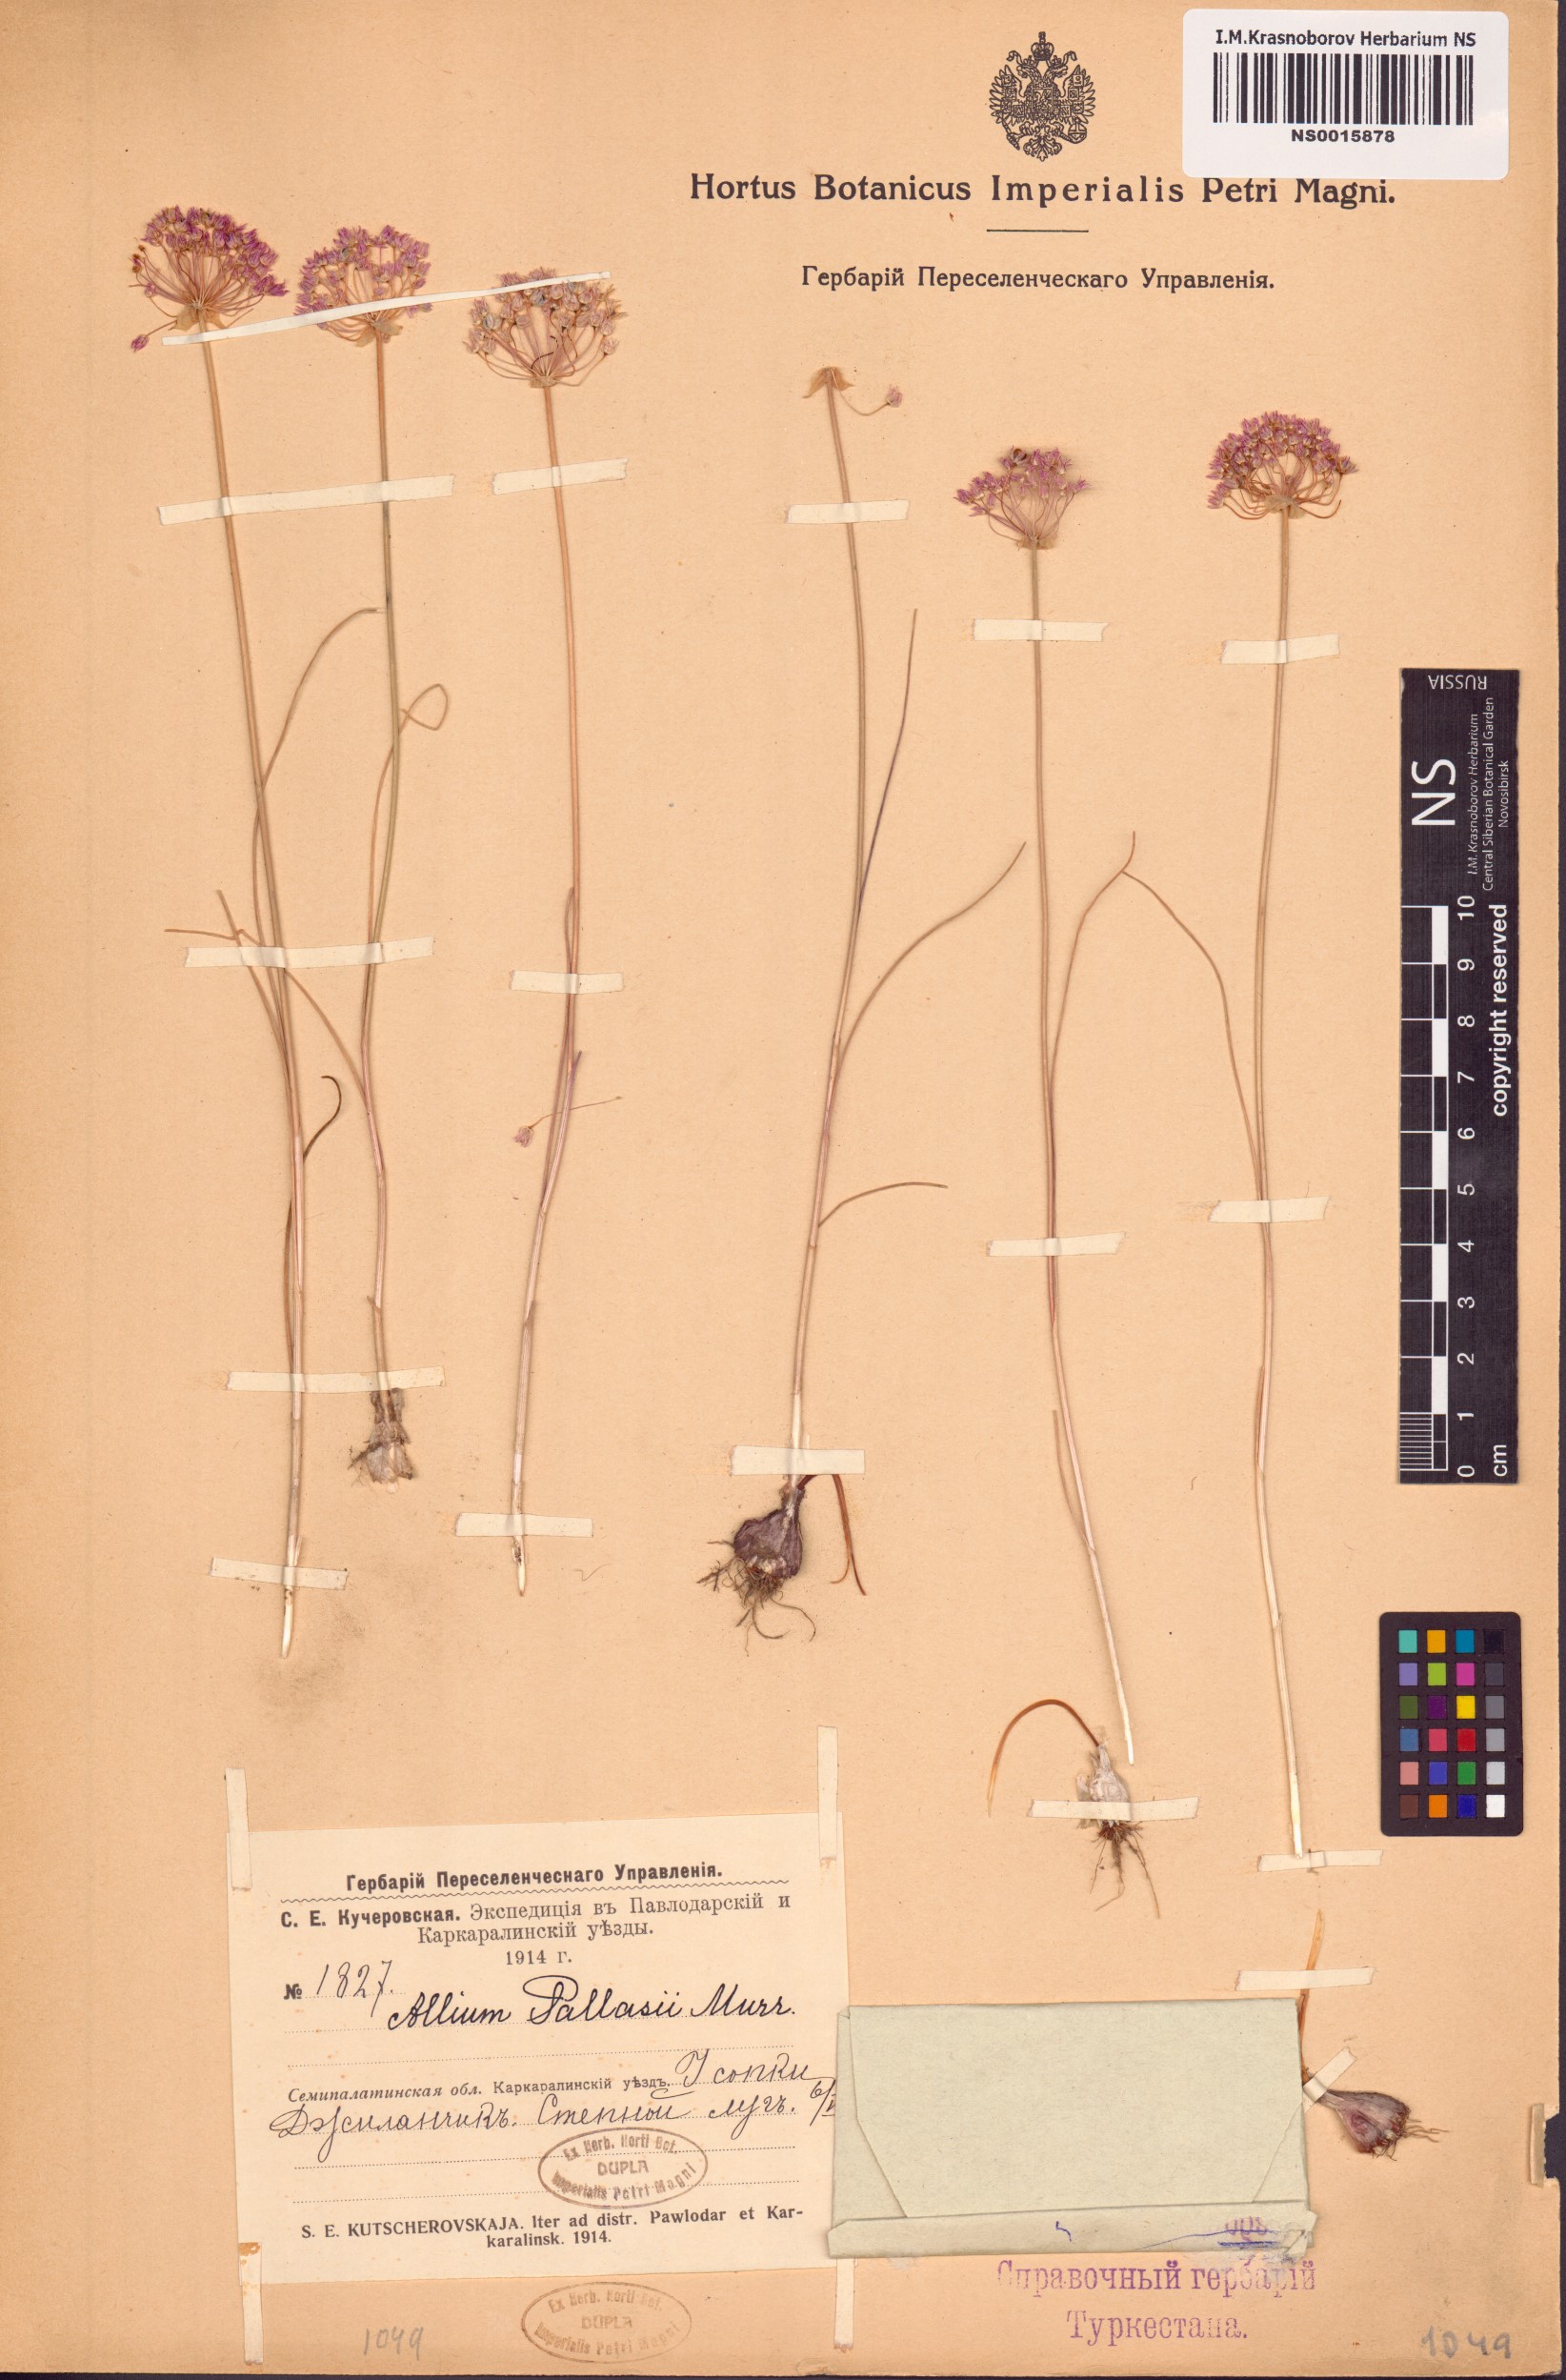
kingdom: Plantae
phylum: Tracheophyta
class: Liliopsida
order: Asparagales
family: Amaryllidaceae
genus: Allium
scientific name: Allium pallasii
